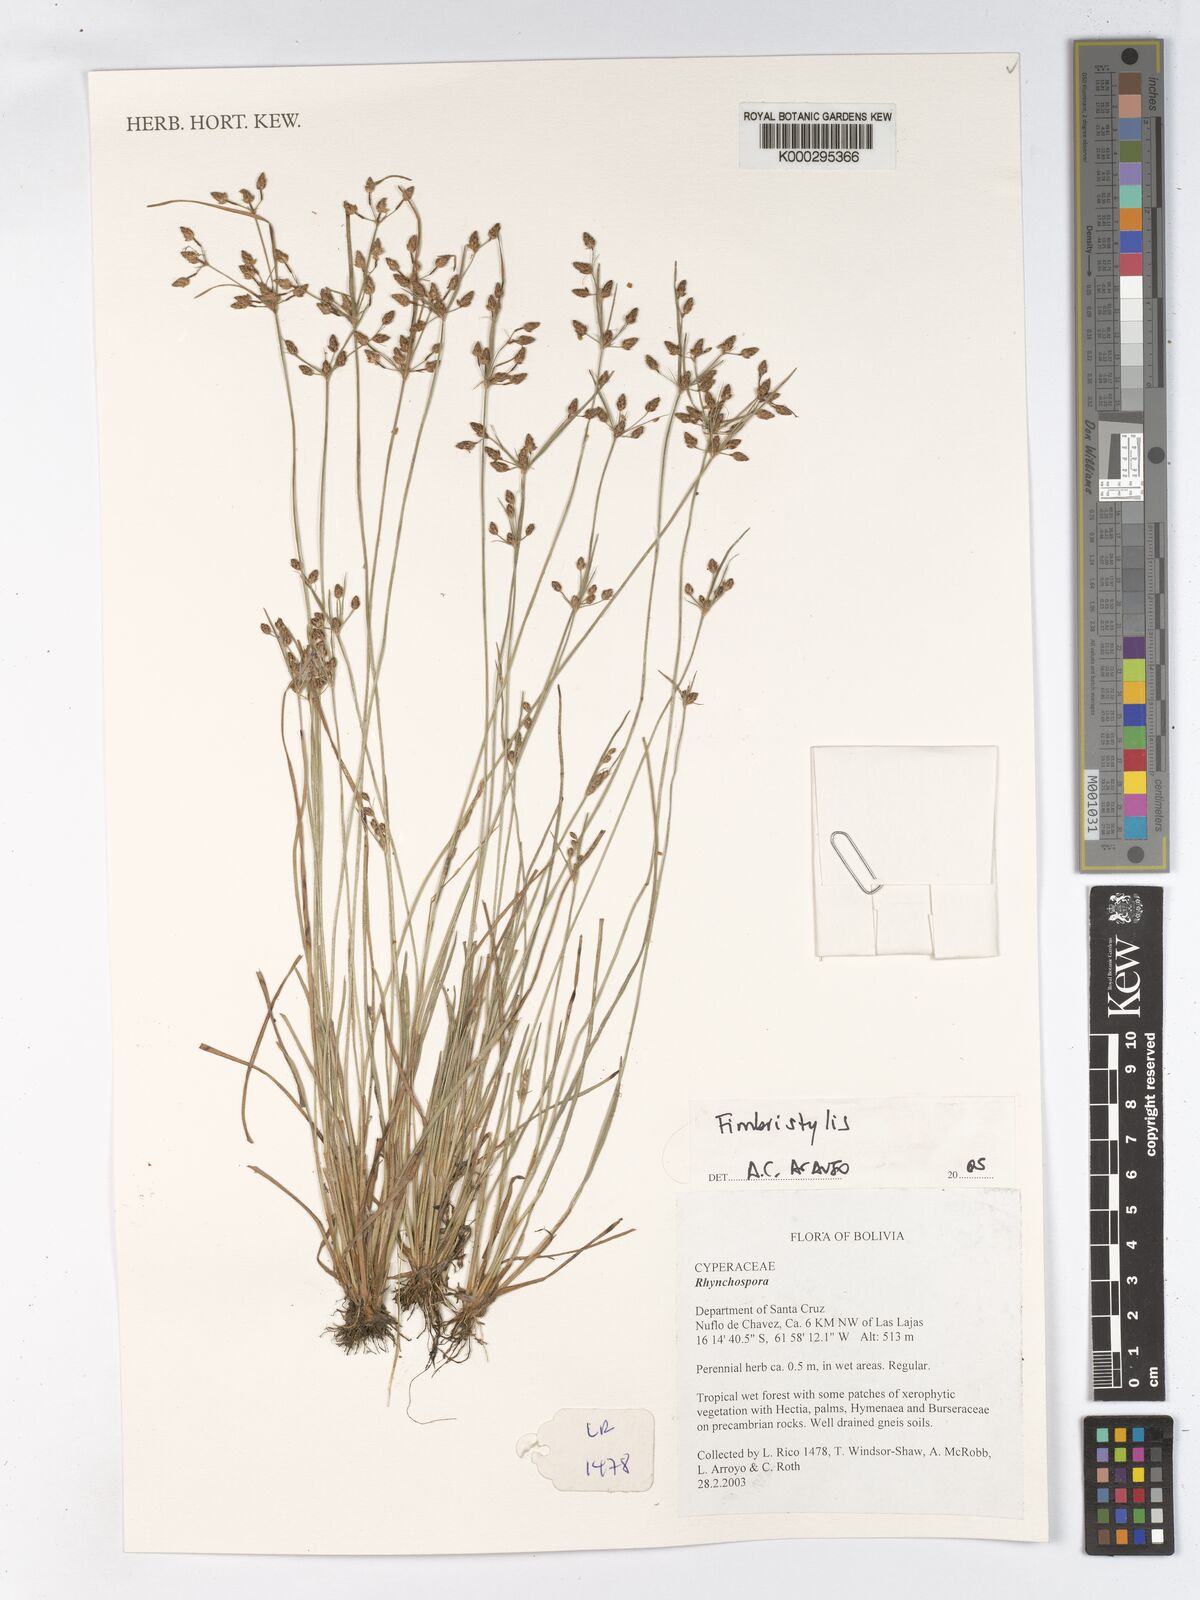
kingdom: Plantae
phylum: Tracheophyta
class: Liliopsida
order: Poales
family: Cyperaceae
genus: Fimbristylis
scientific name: Fimbristylis dichotoma
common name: Forked fimbry
